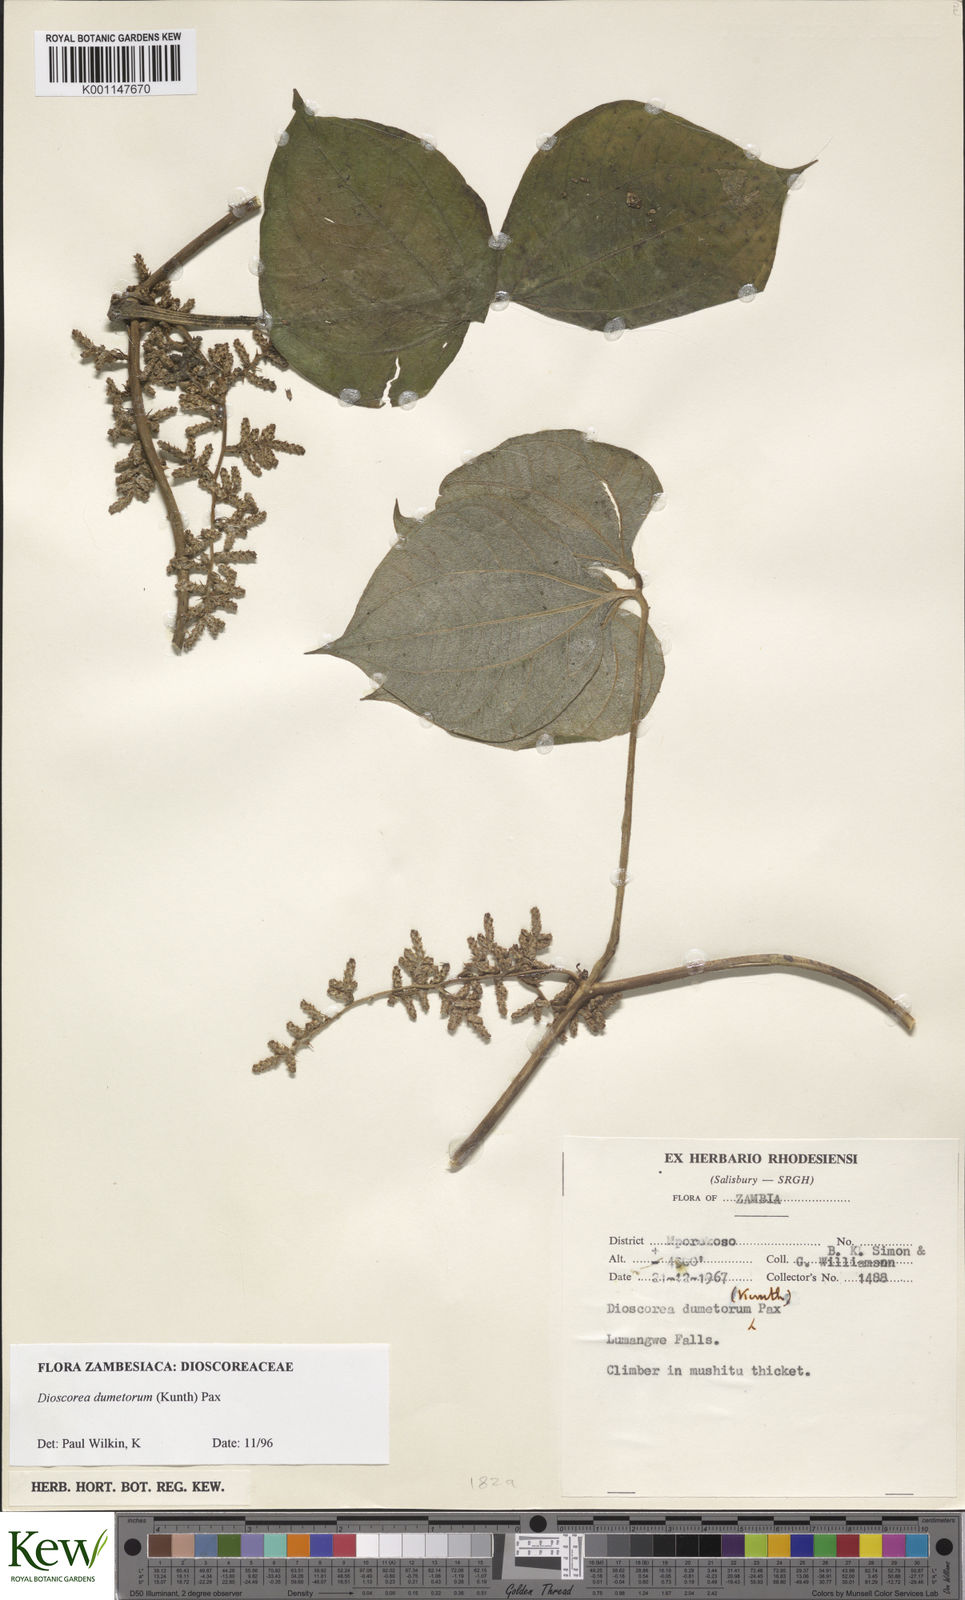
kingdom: Plantae
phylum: Tracheophyta
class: Liliopsida
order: Dioscoreales
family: Dioscoreaceae
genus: Dioscorea
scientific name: Dioscorea dumetorum
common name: African bitter yam
